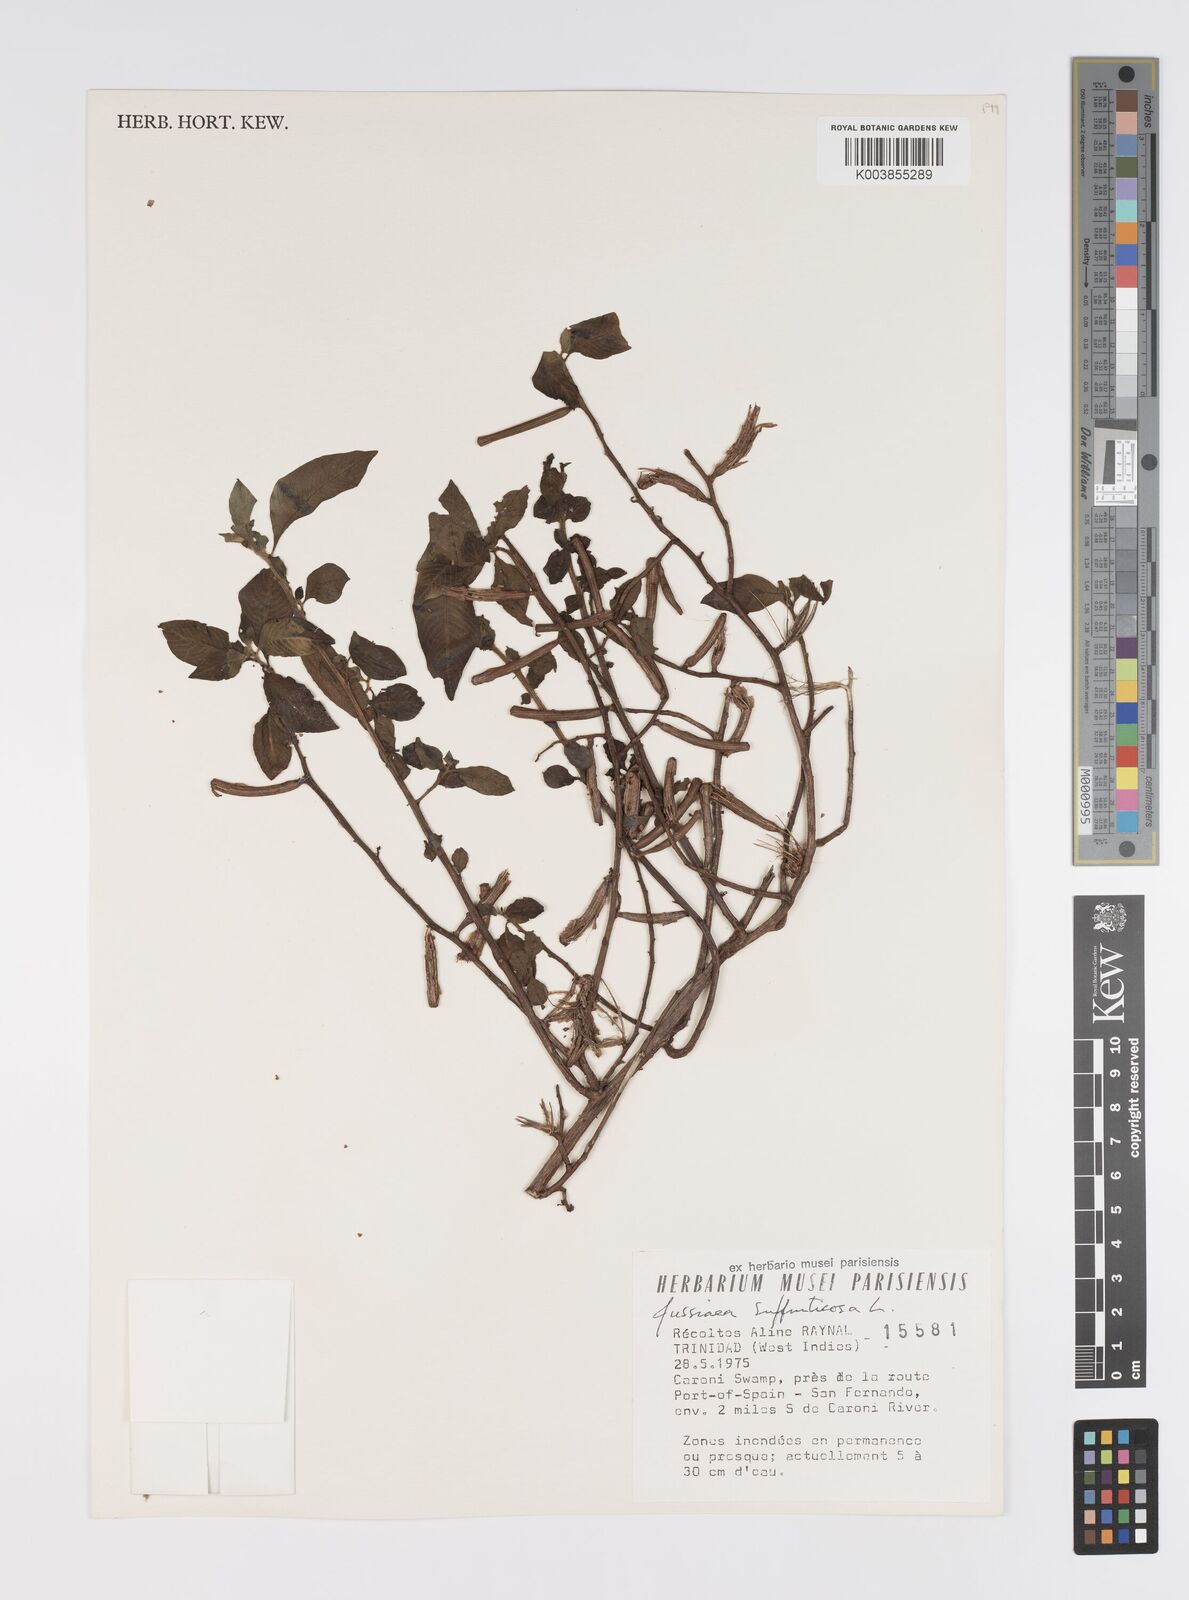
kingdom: Plantae
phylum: Tracheophyta
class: Magnoliopsida
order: Myrtales
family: Onagraceae
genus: Ludwigia
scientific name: Ludwigia octovalvis
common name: Water-primrose
